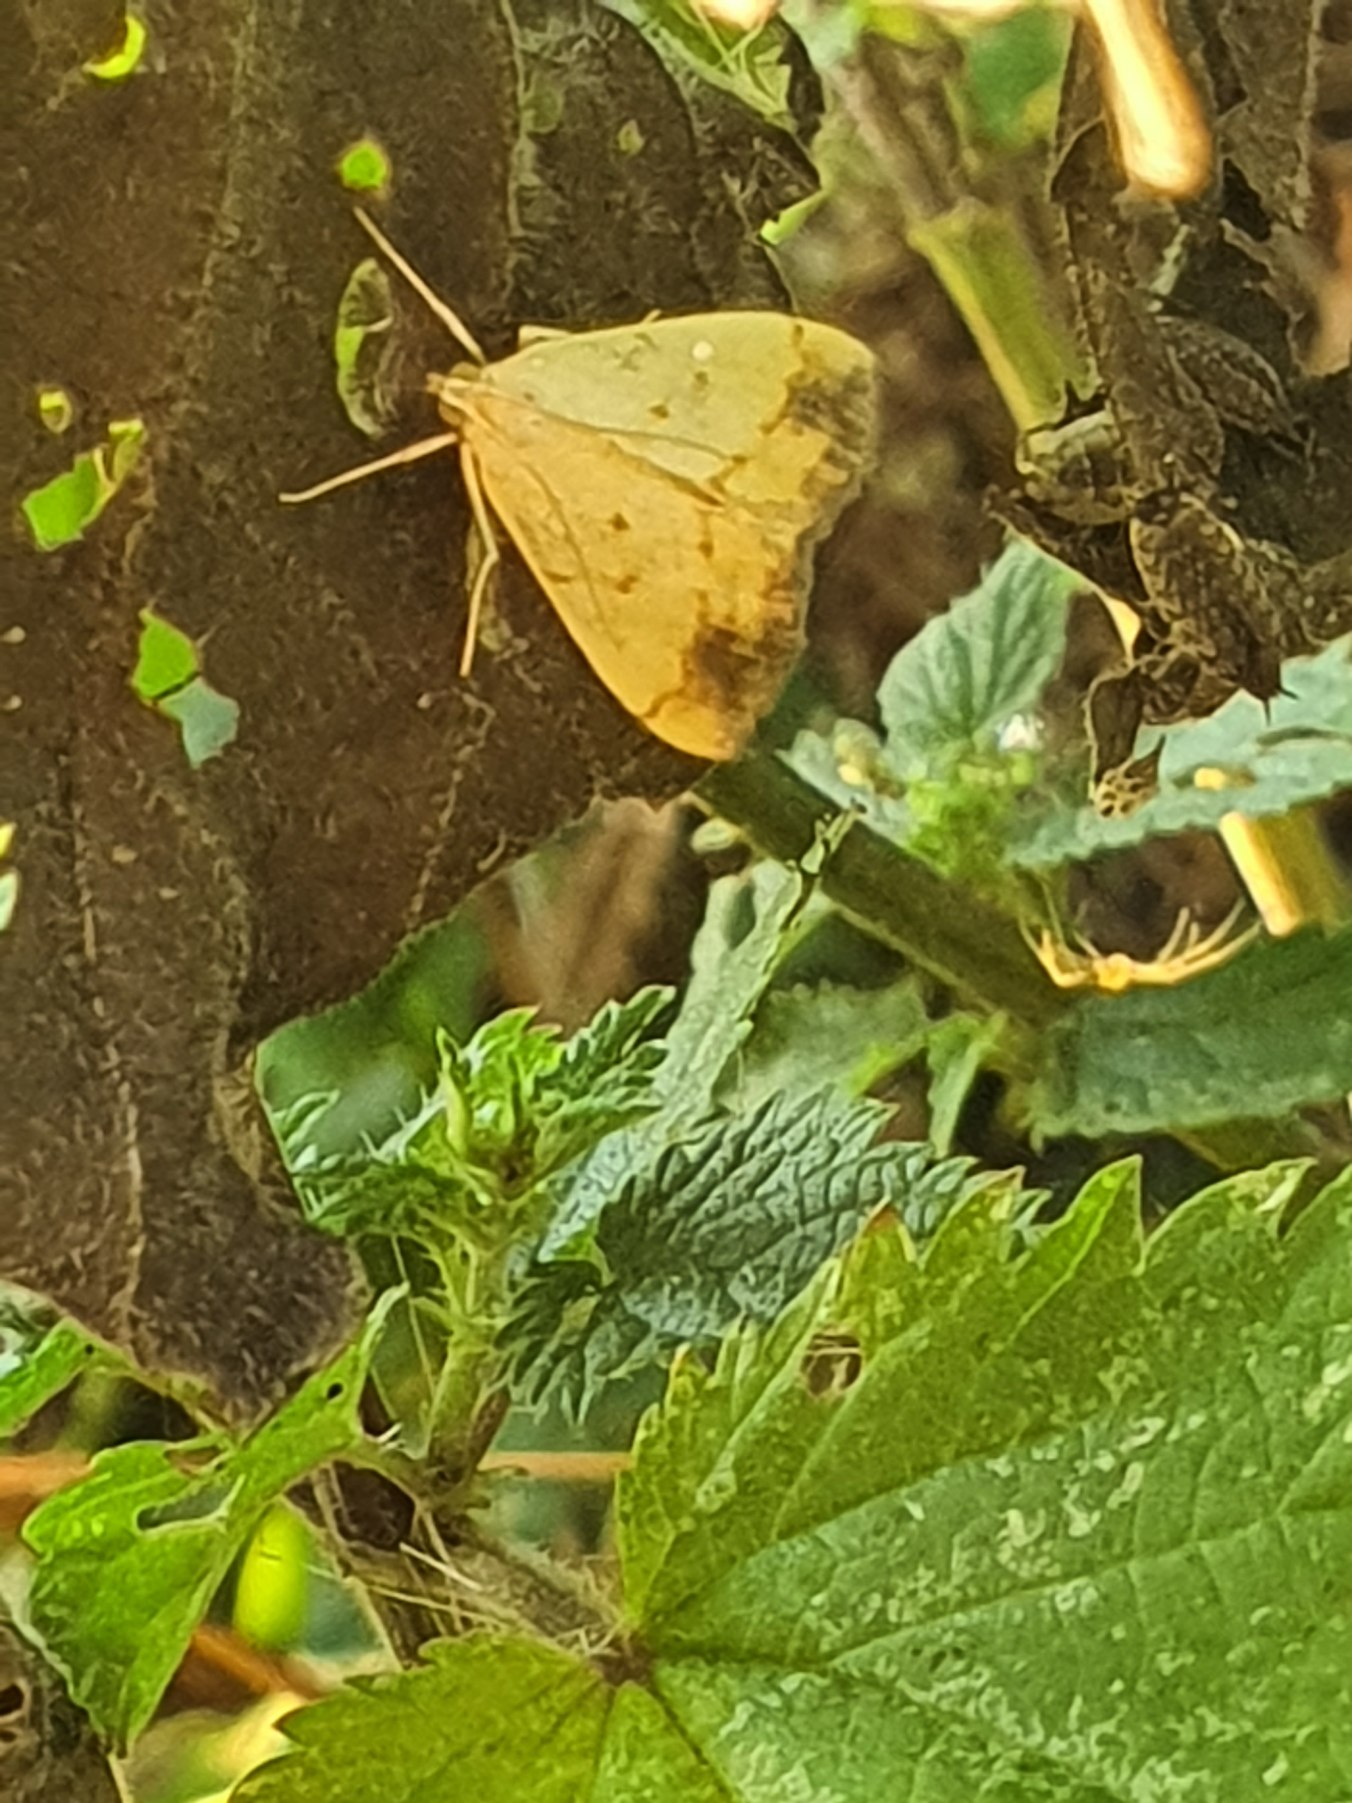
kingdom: Animalia
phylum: Arthropoda
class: Insecta
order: Lepidoptera
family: Crambidae
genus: Evergestis
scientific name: Evergestis extimalis
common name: Korsblomsthalvmøl
